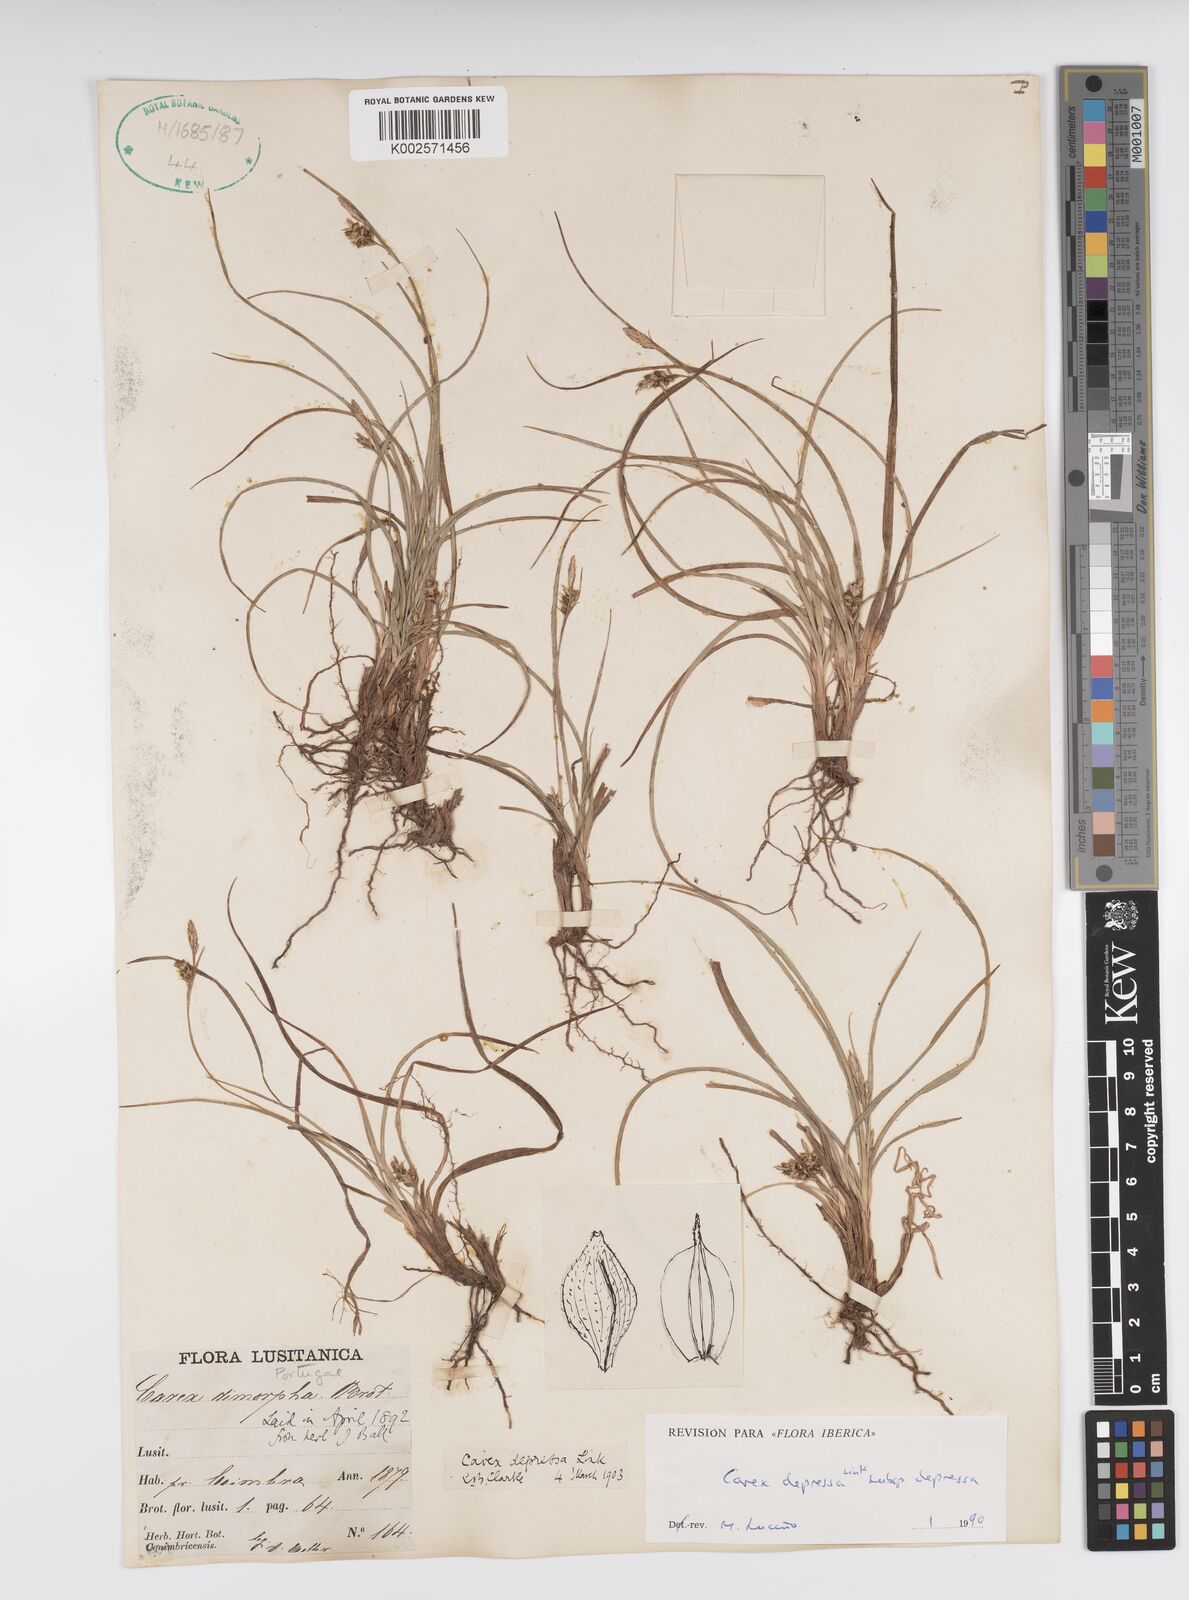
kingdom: Plantae
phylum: Tracheophyta
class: Liliopsida
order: Poales
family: Cyperaceae
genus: Carex
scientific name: Carex depressa
